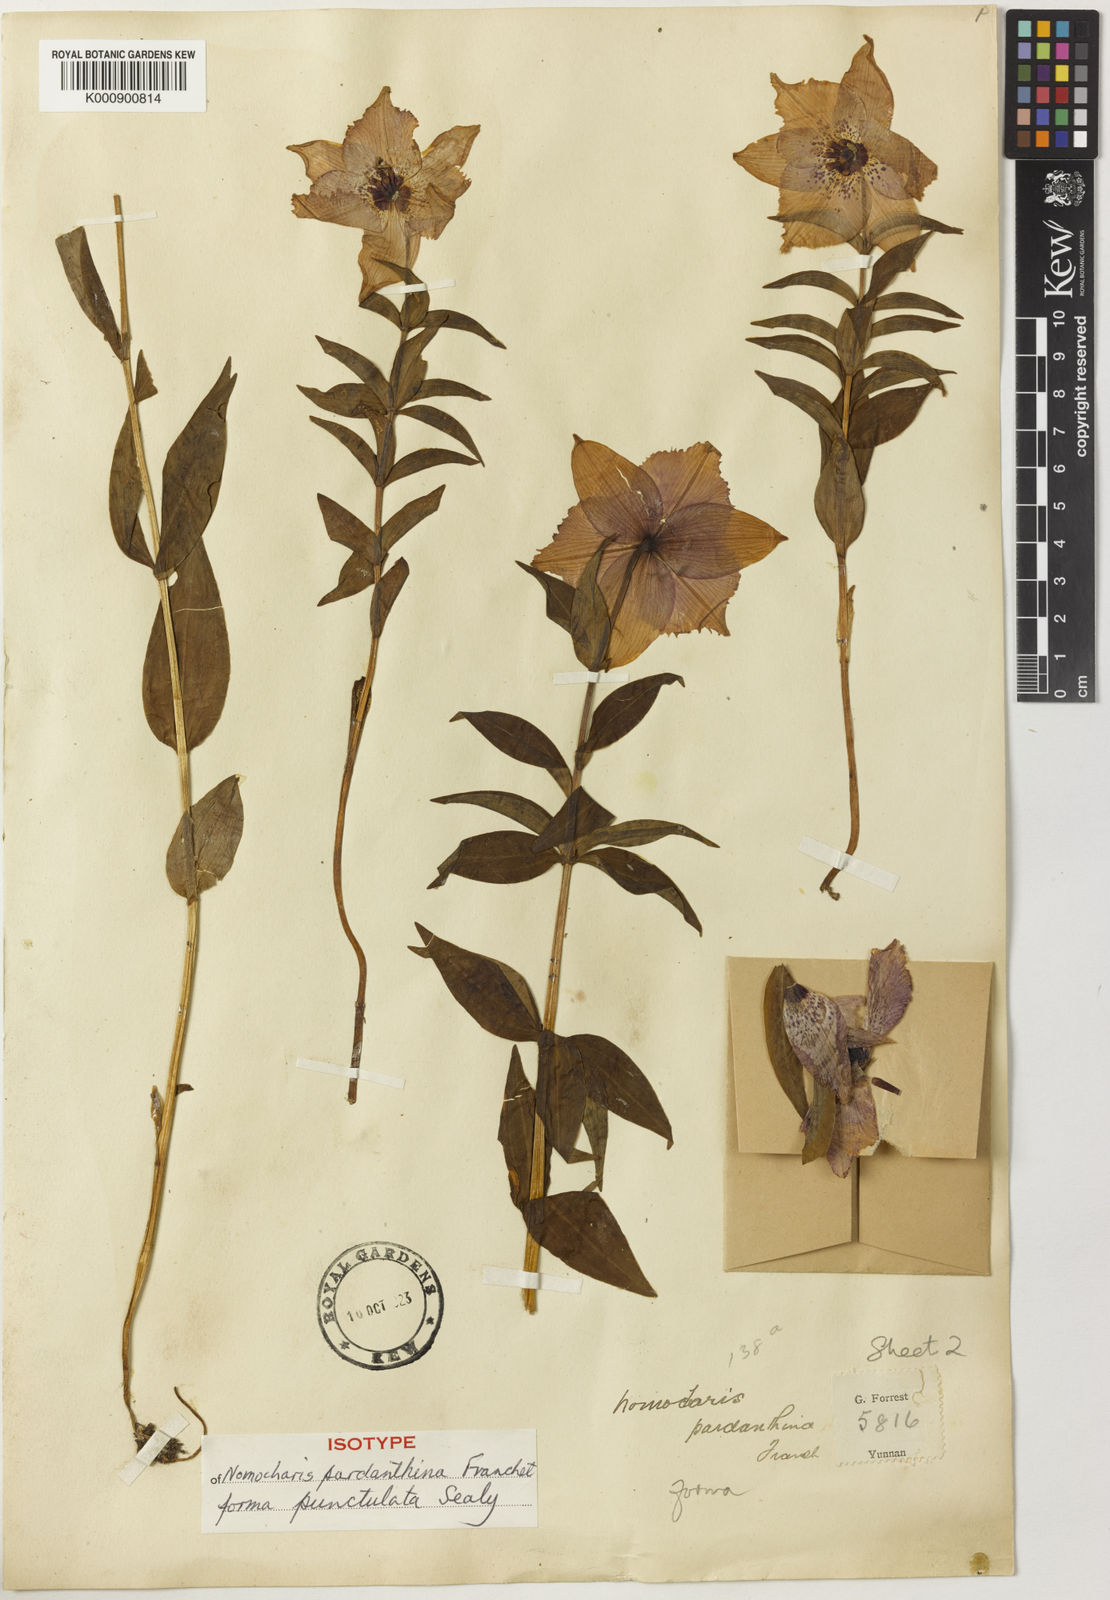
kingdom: Plantae
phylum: Tracheophyta
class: Liliopsida
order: Liliales
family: Liliaceae
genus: Lilium
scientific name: Lilium pardanthinum
